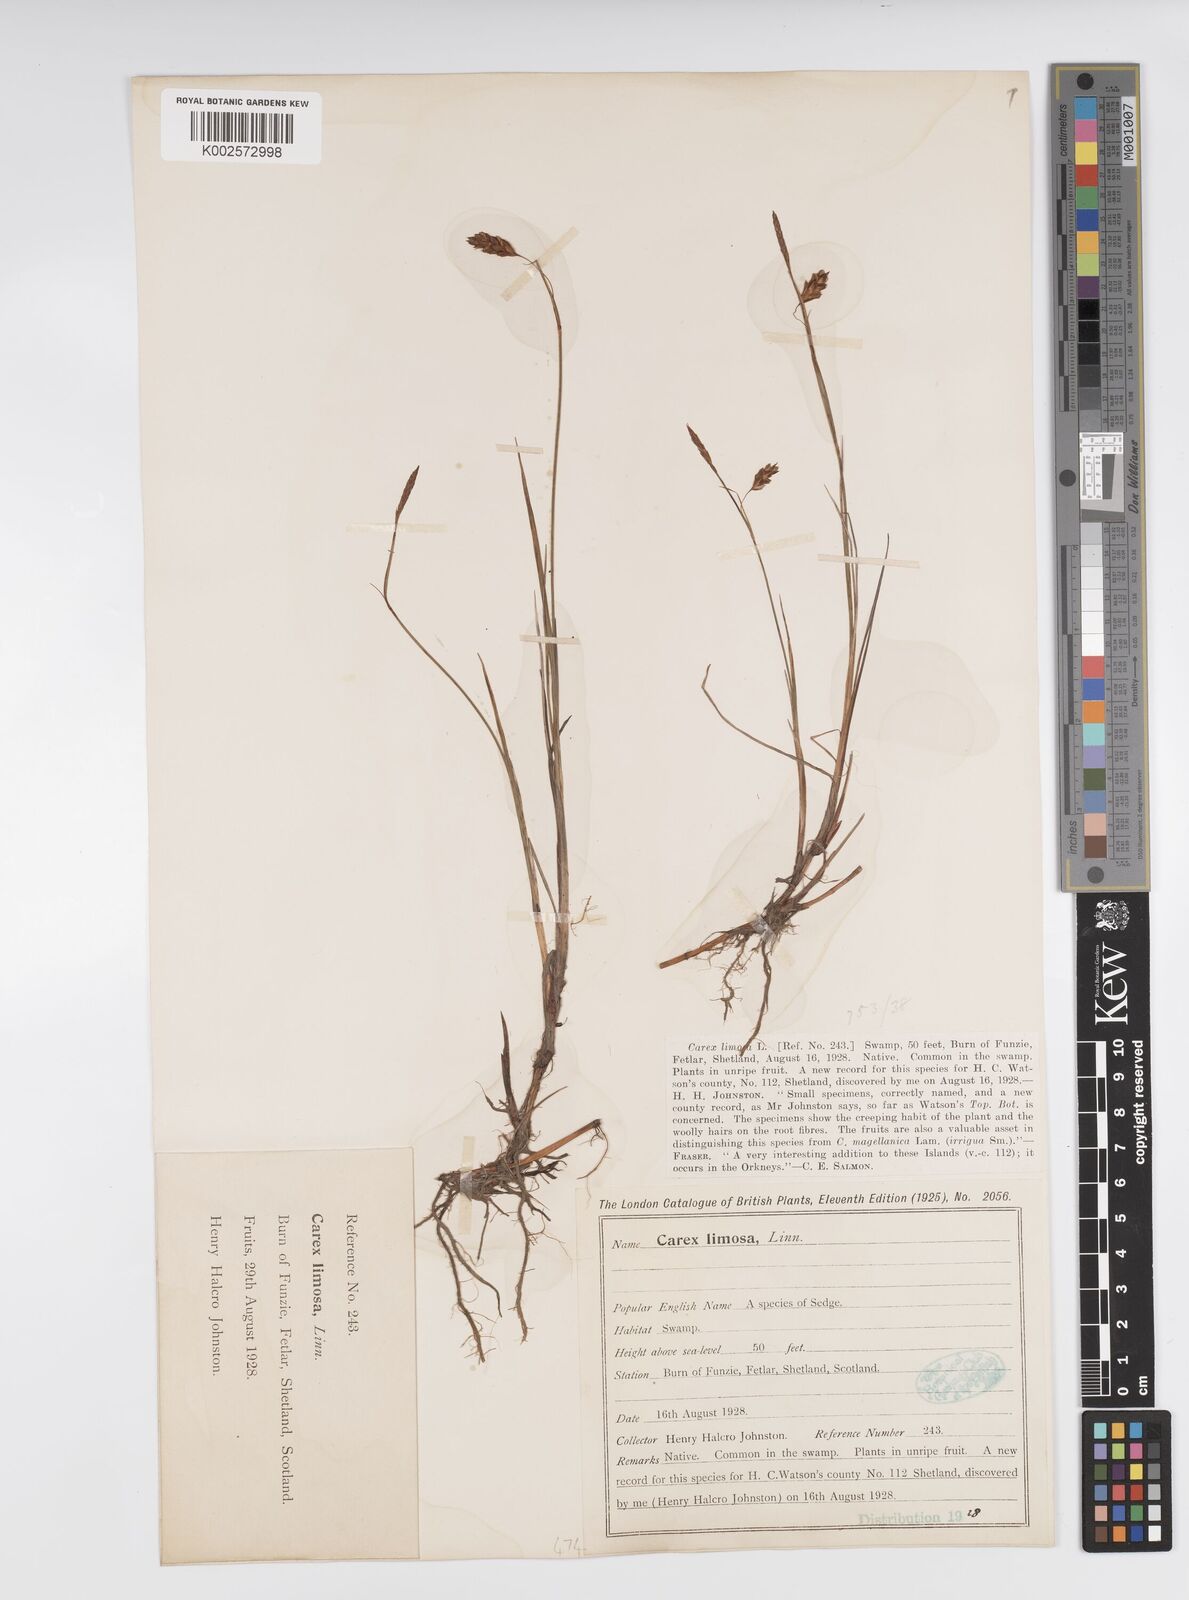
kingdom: Plantae
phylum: Tracheophyta
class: Liliopsida
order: Poales
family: Cyperaceae
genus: Carex
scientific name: Carex limosa
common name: Bog sedge
